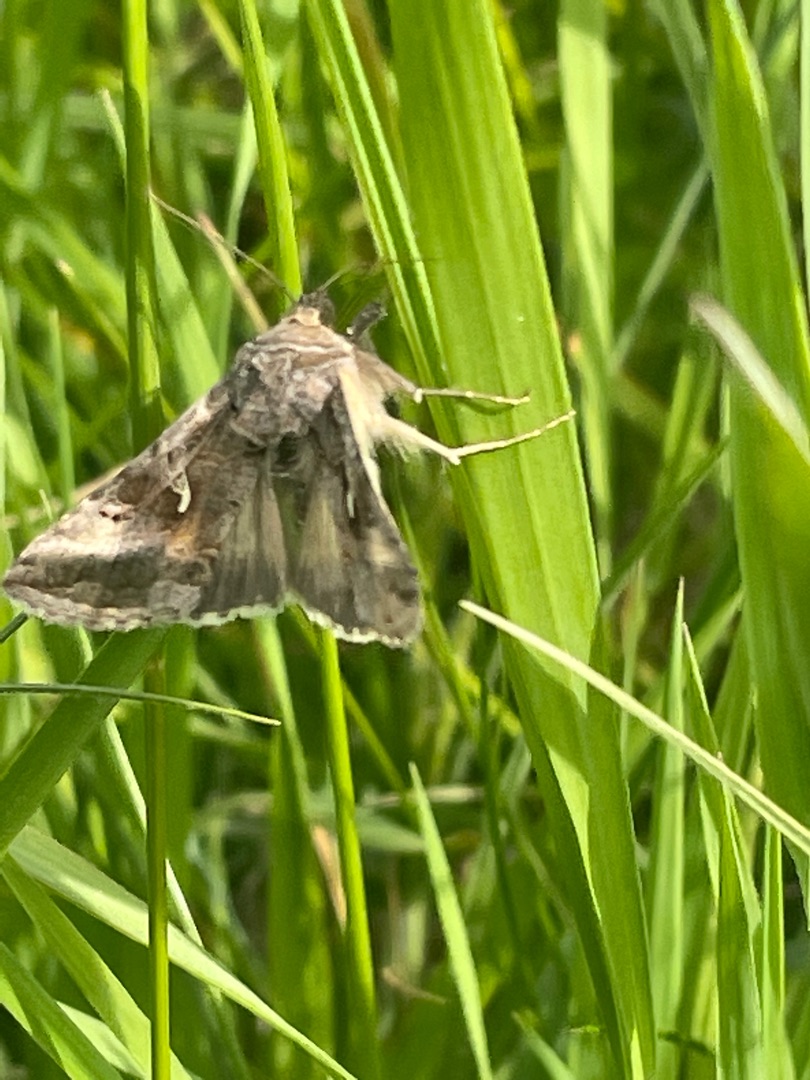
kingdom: Animalia
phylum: Arthropoda
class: Insecta
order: Lepidoptera
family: Noctuidae
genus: Autographa
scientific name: Autographa gamma
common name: Gammaugle
